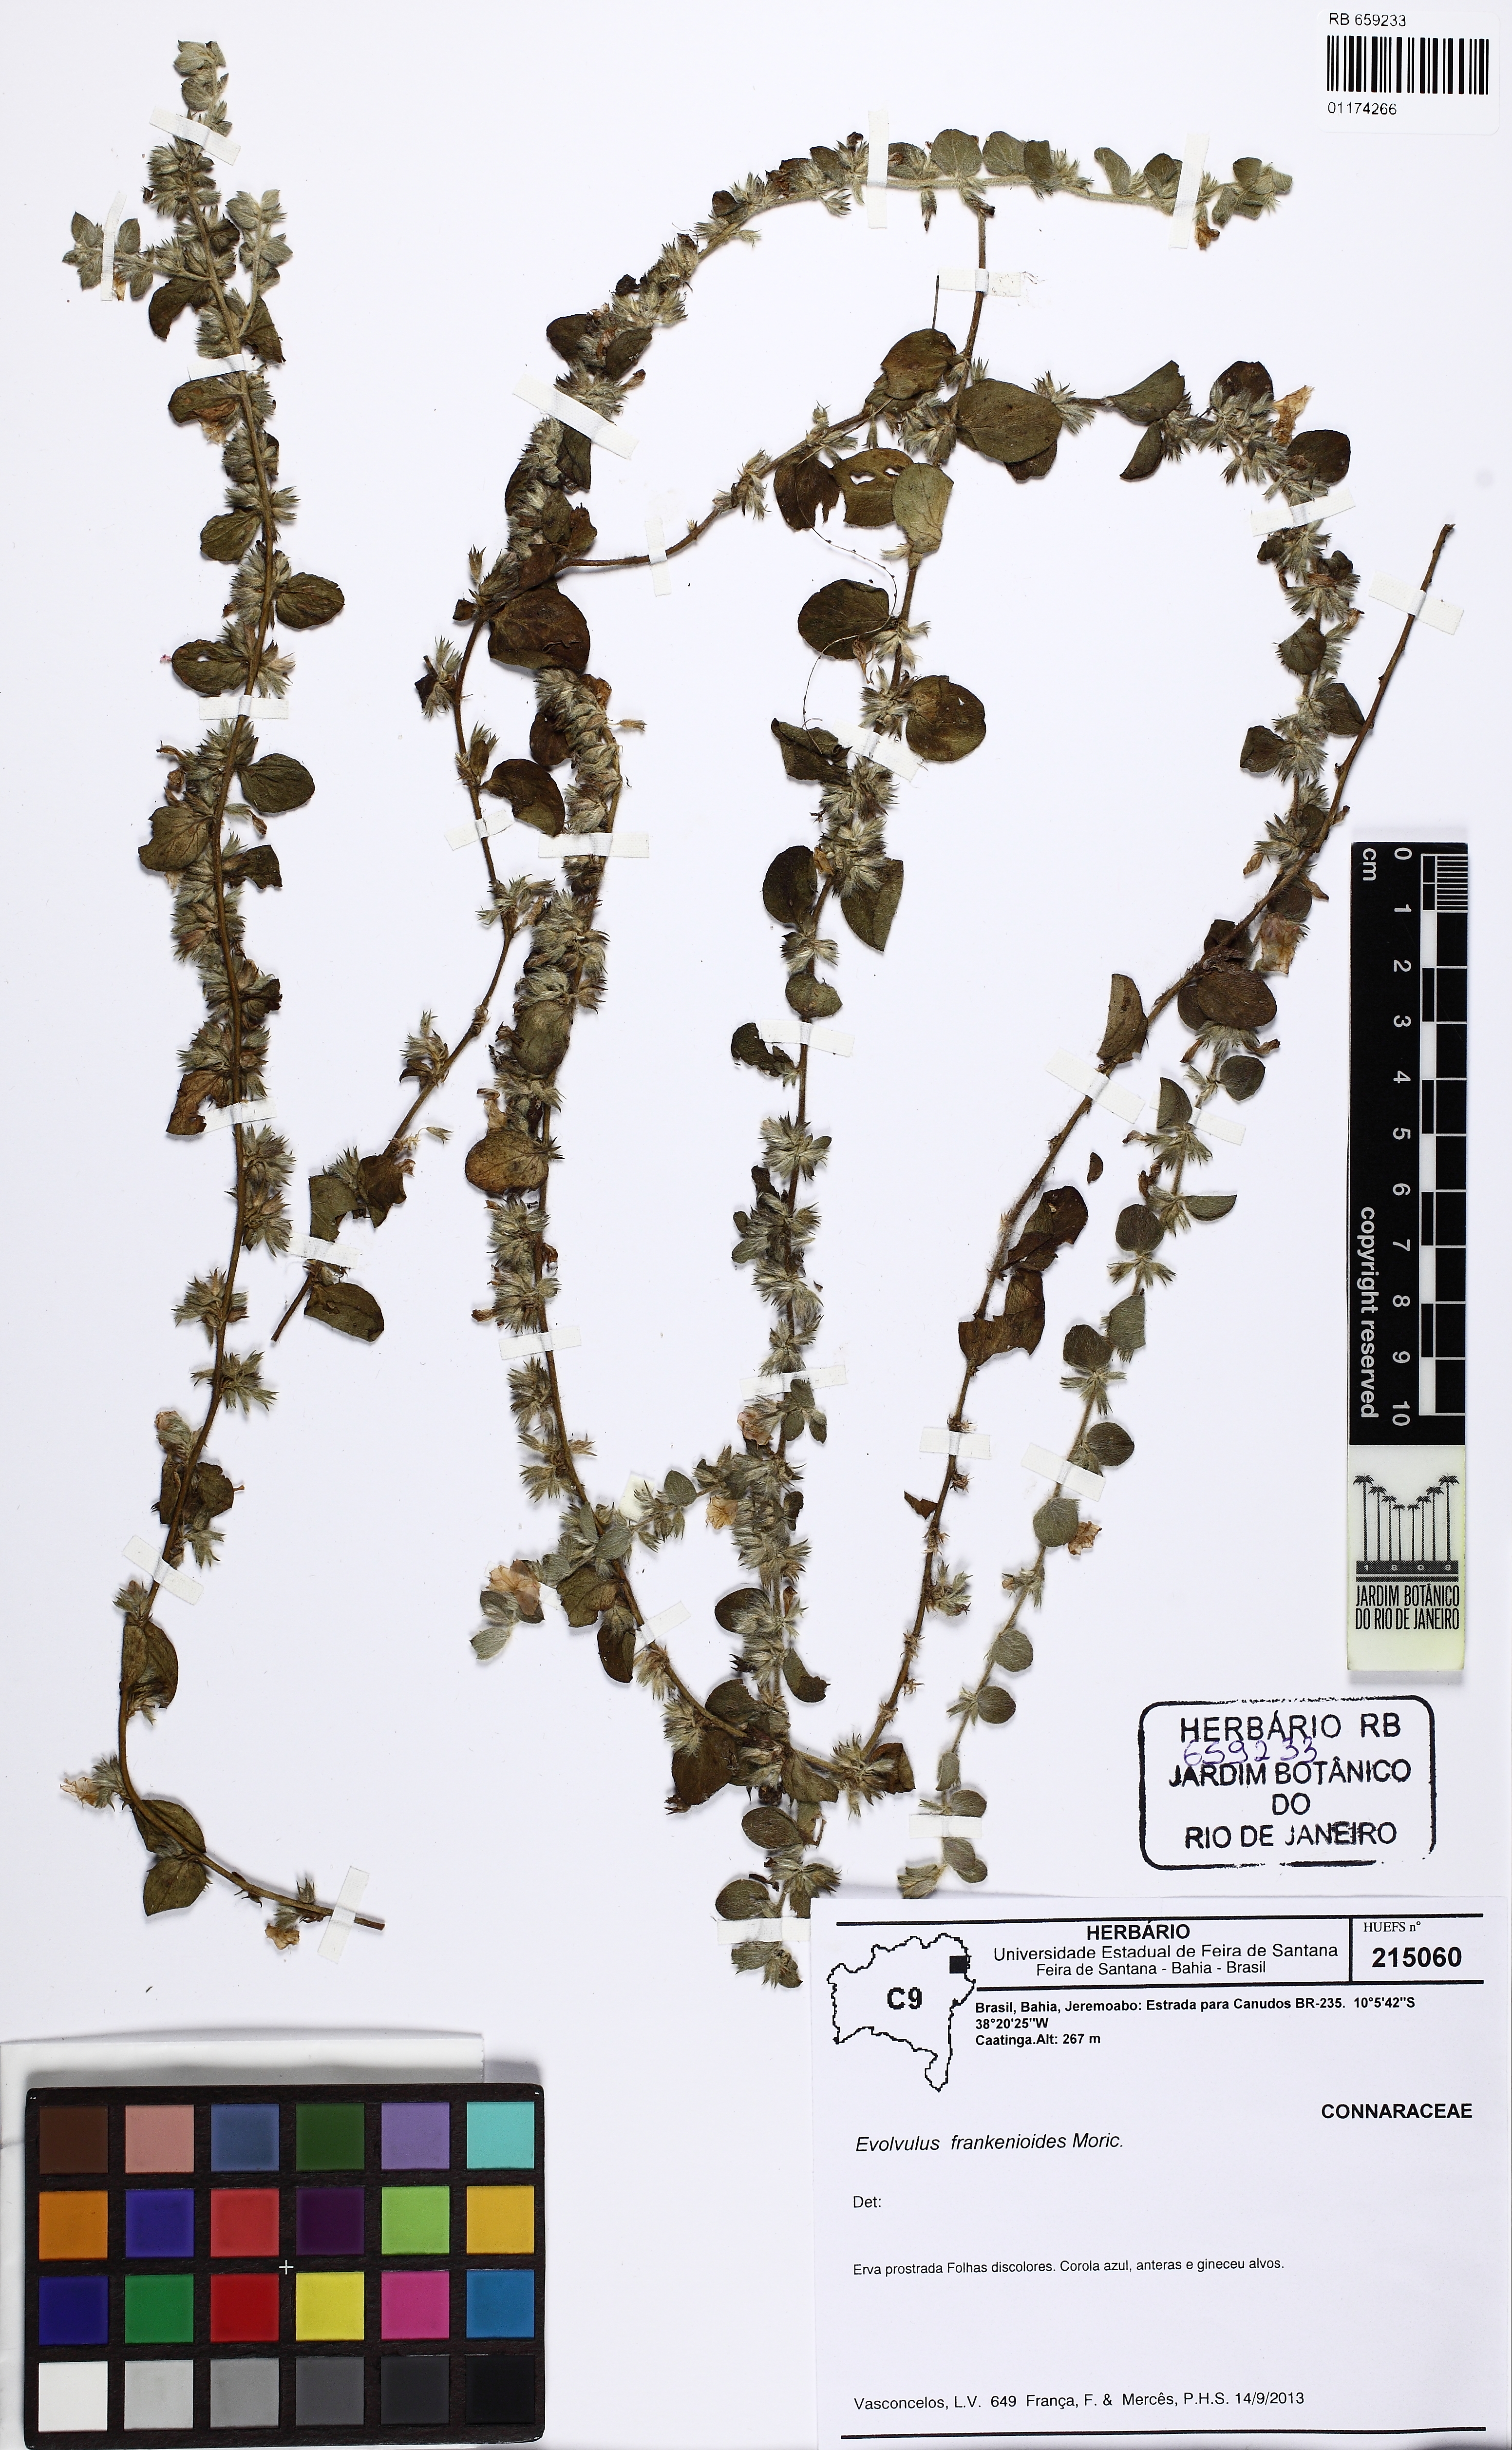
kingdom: Plantae
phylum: Tracheophyta
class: Magnoliopsida
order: Solanales
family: Convolvulaceae
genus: Evolvulus
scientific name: Evolvulus frankenioides
